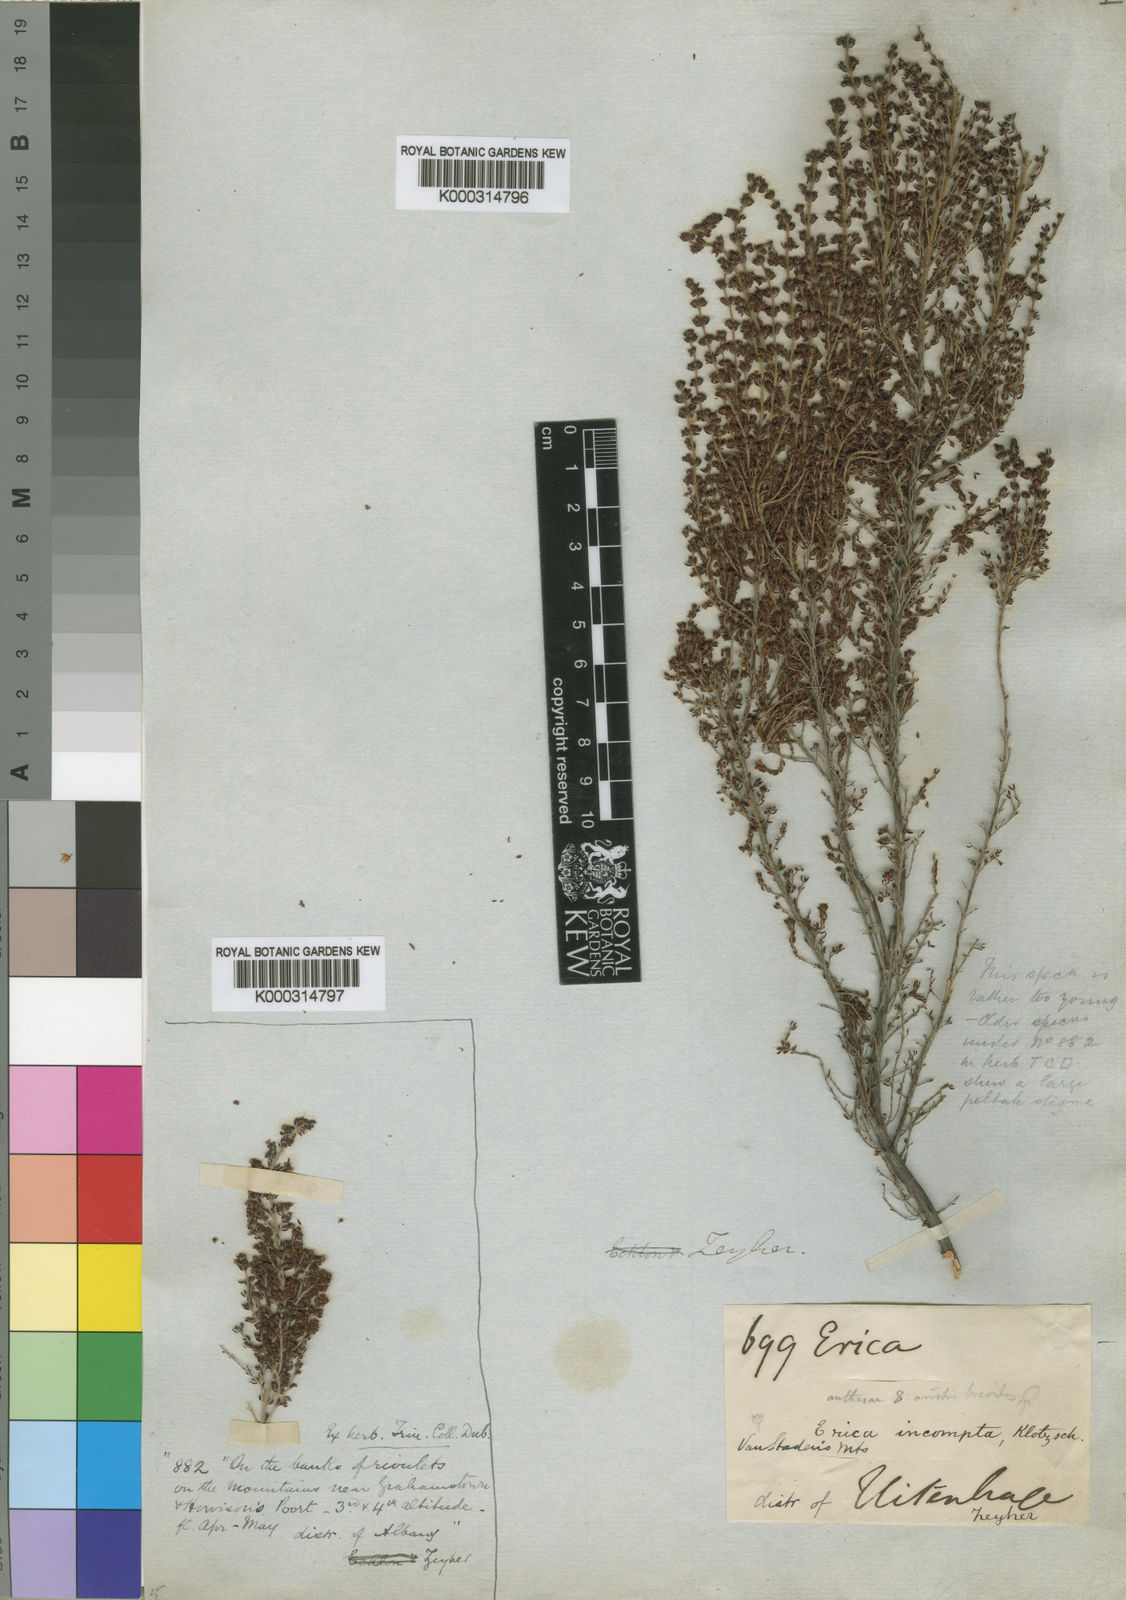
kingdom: Plantae
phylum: Tracheophyta
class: Magnoliopsida
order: Ericales
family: Ericaceae
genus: Erica
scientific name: Erica copiosa
